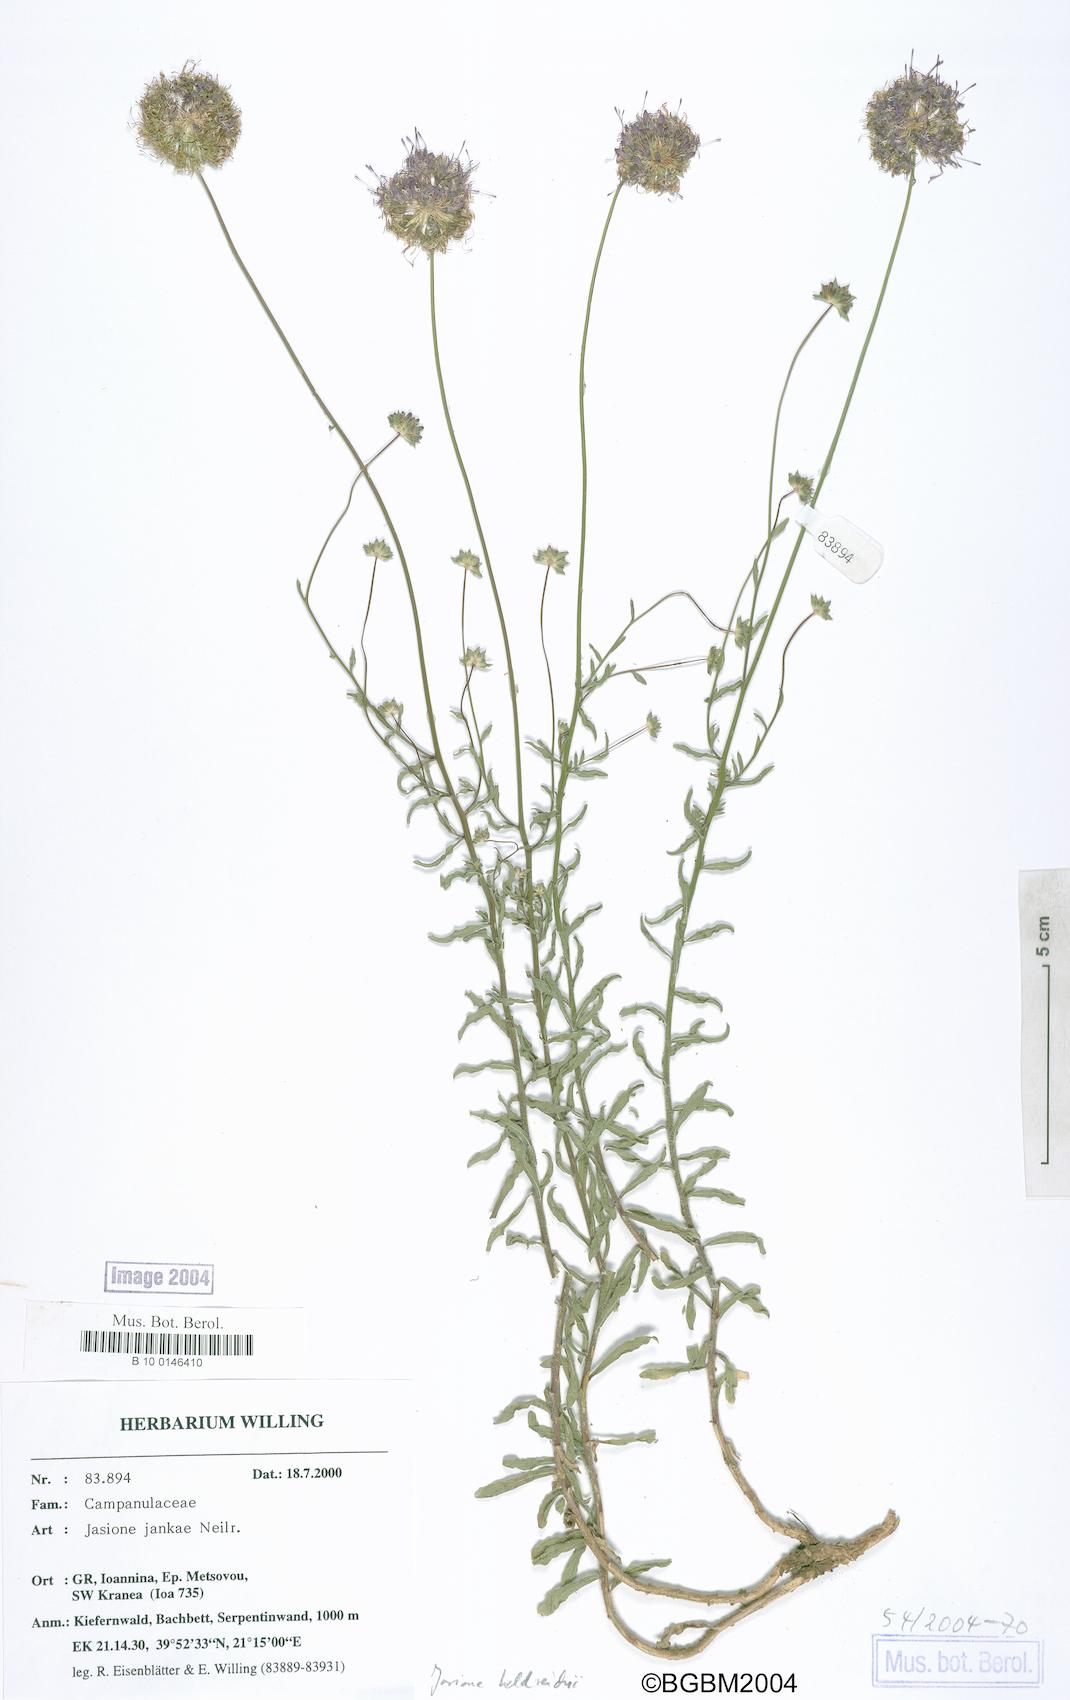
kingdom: Plantae
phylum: Tracheophyta
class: Magnoliopsida
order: Asterales
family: Campanulaceae
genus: Jasione
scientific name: Jasione heldreichii
